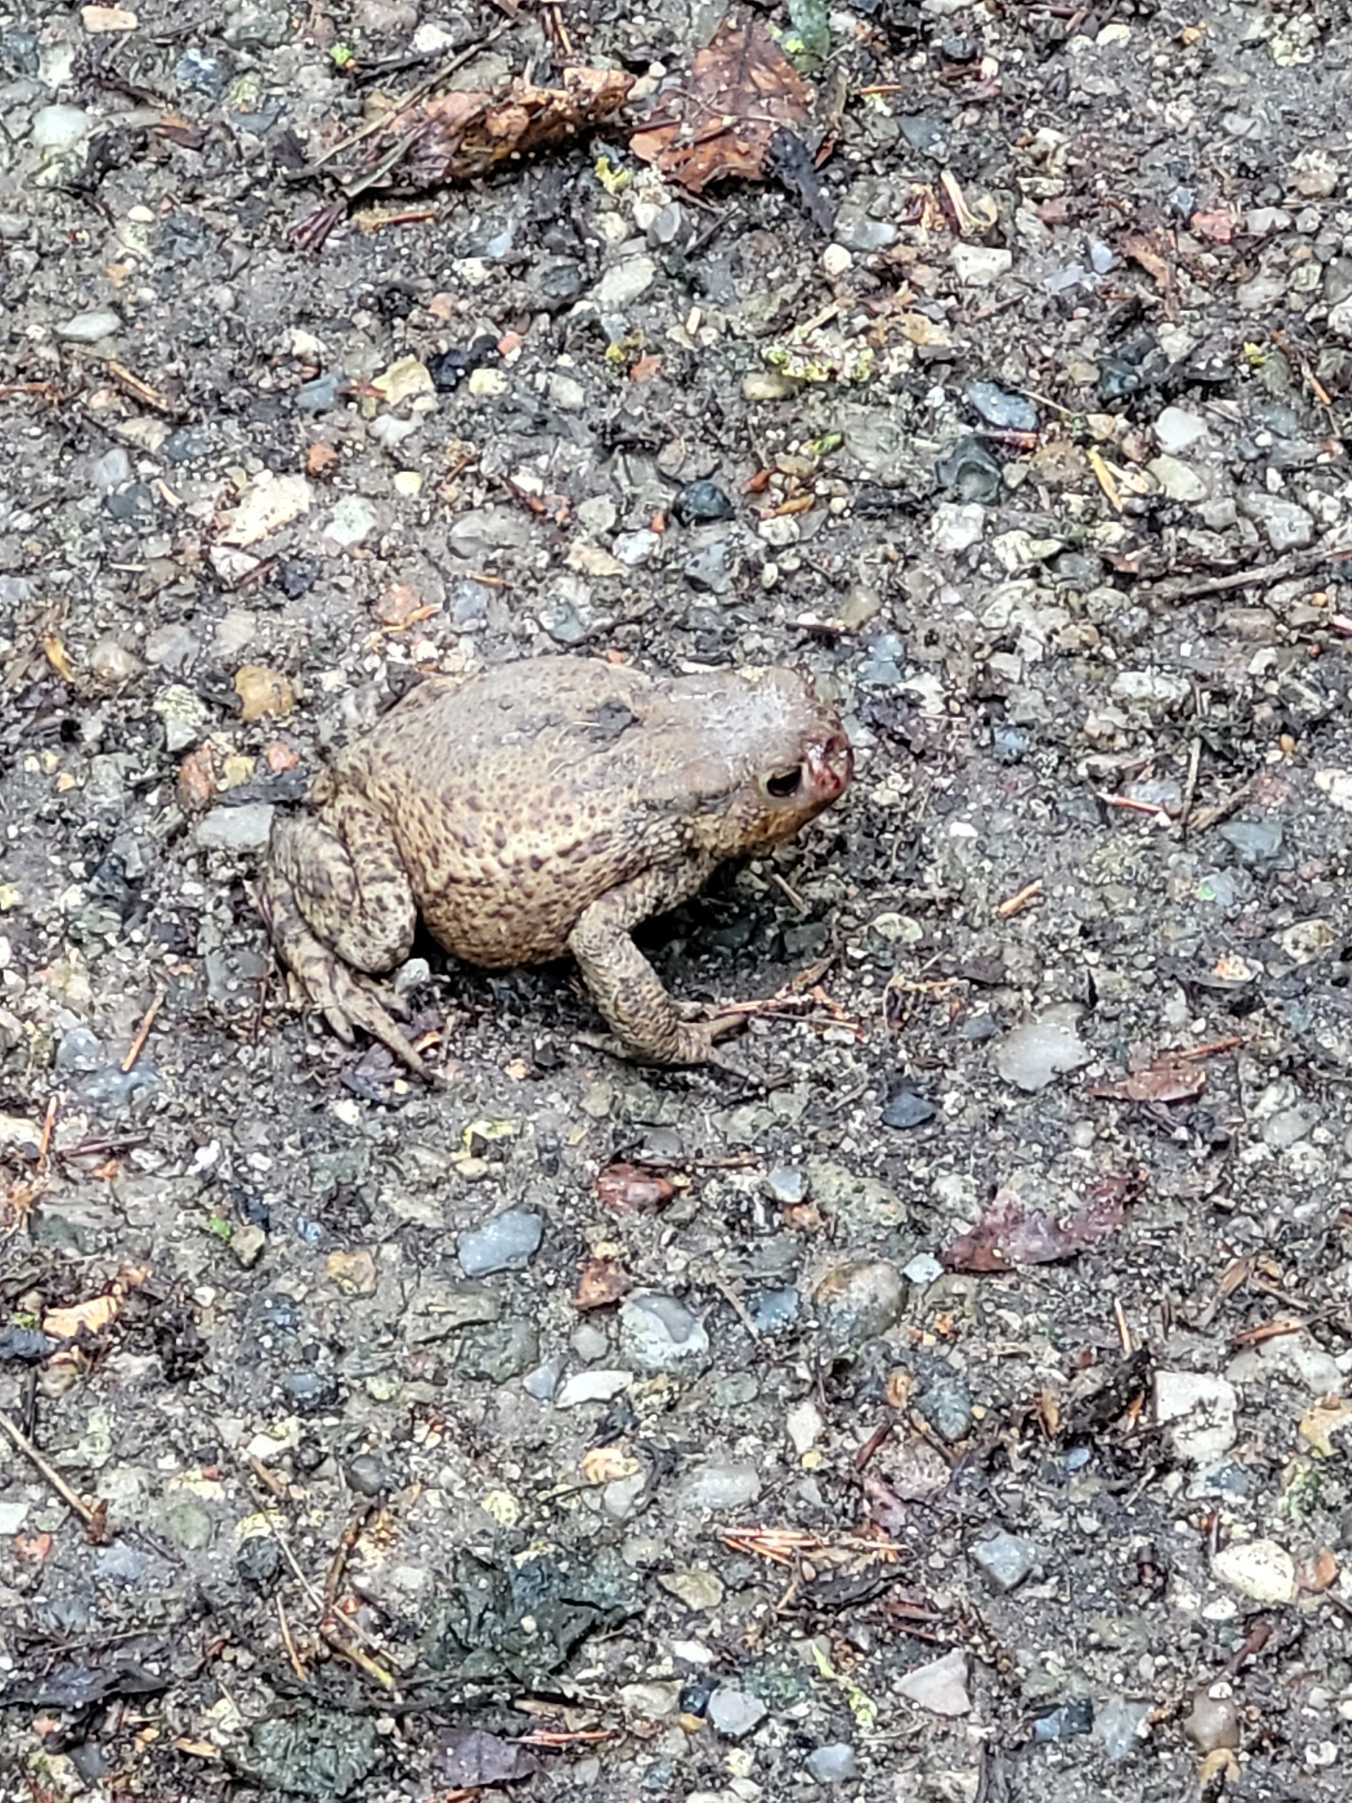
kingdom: Animalia
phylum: Chordata
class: Amphibia
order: Anura
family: Bufonidae
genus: Bufo
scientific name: Bufo bufo
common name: Skrubtudse
